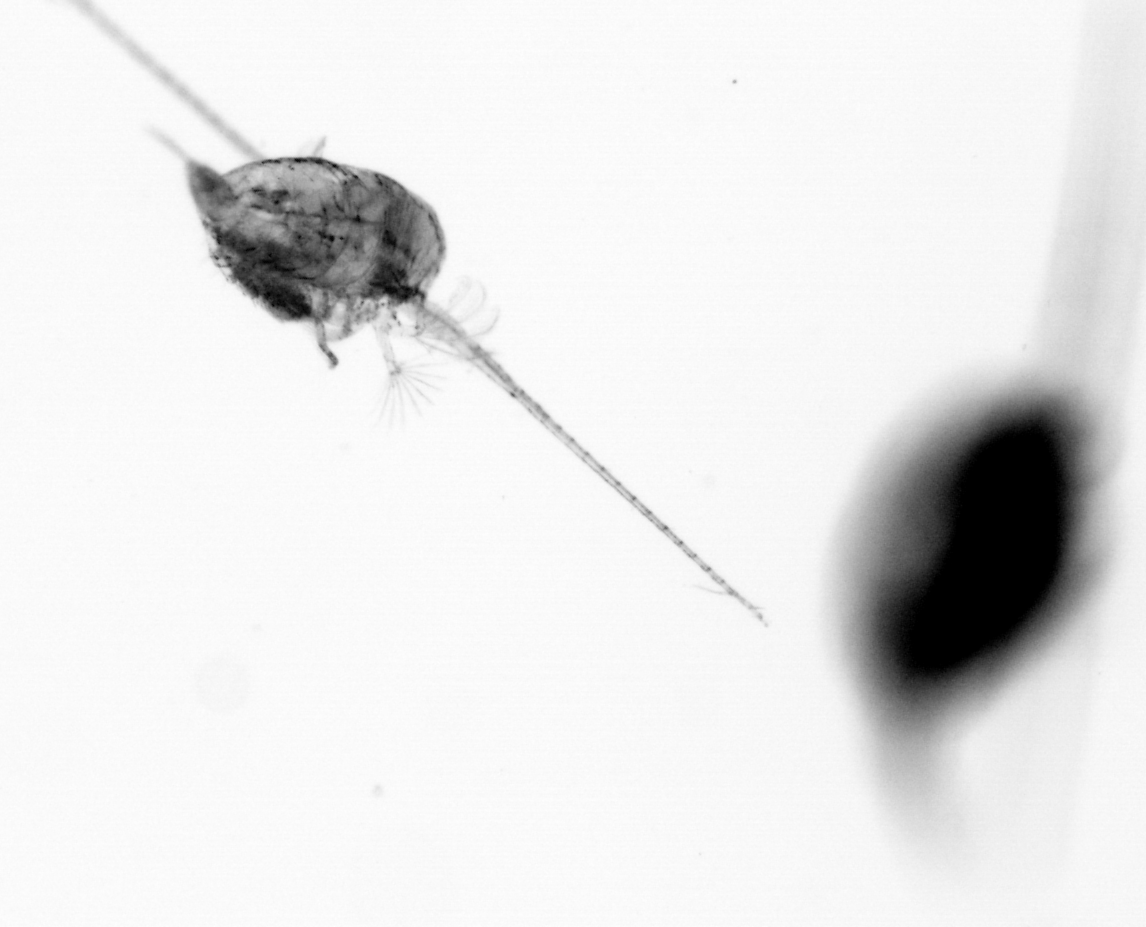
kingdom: Animalia
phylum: Arthropoda
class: Copepoda
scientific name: Copepoda
